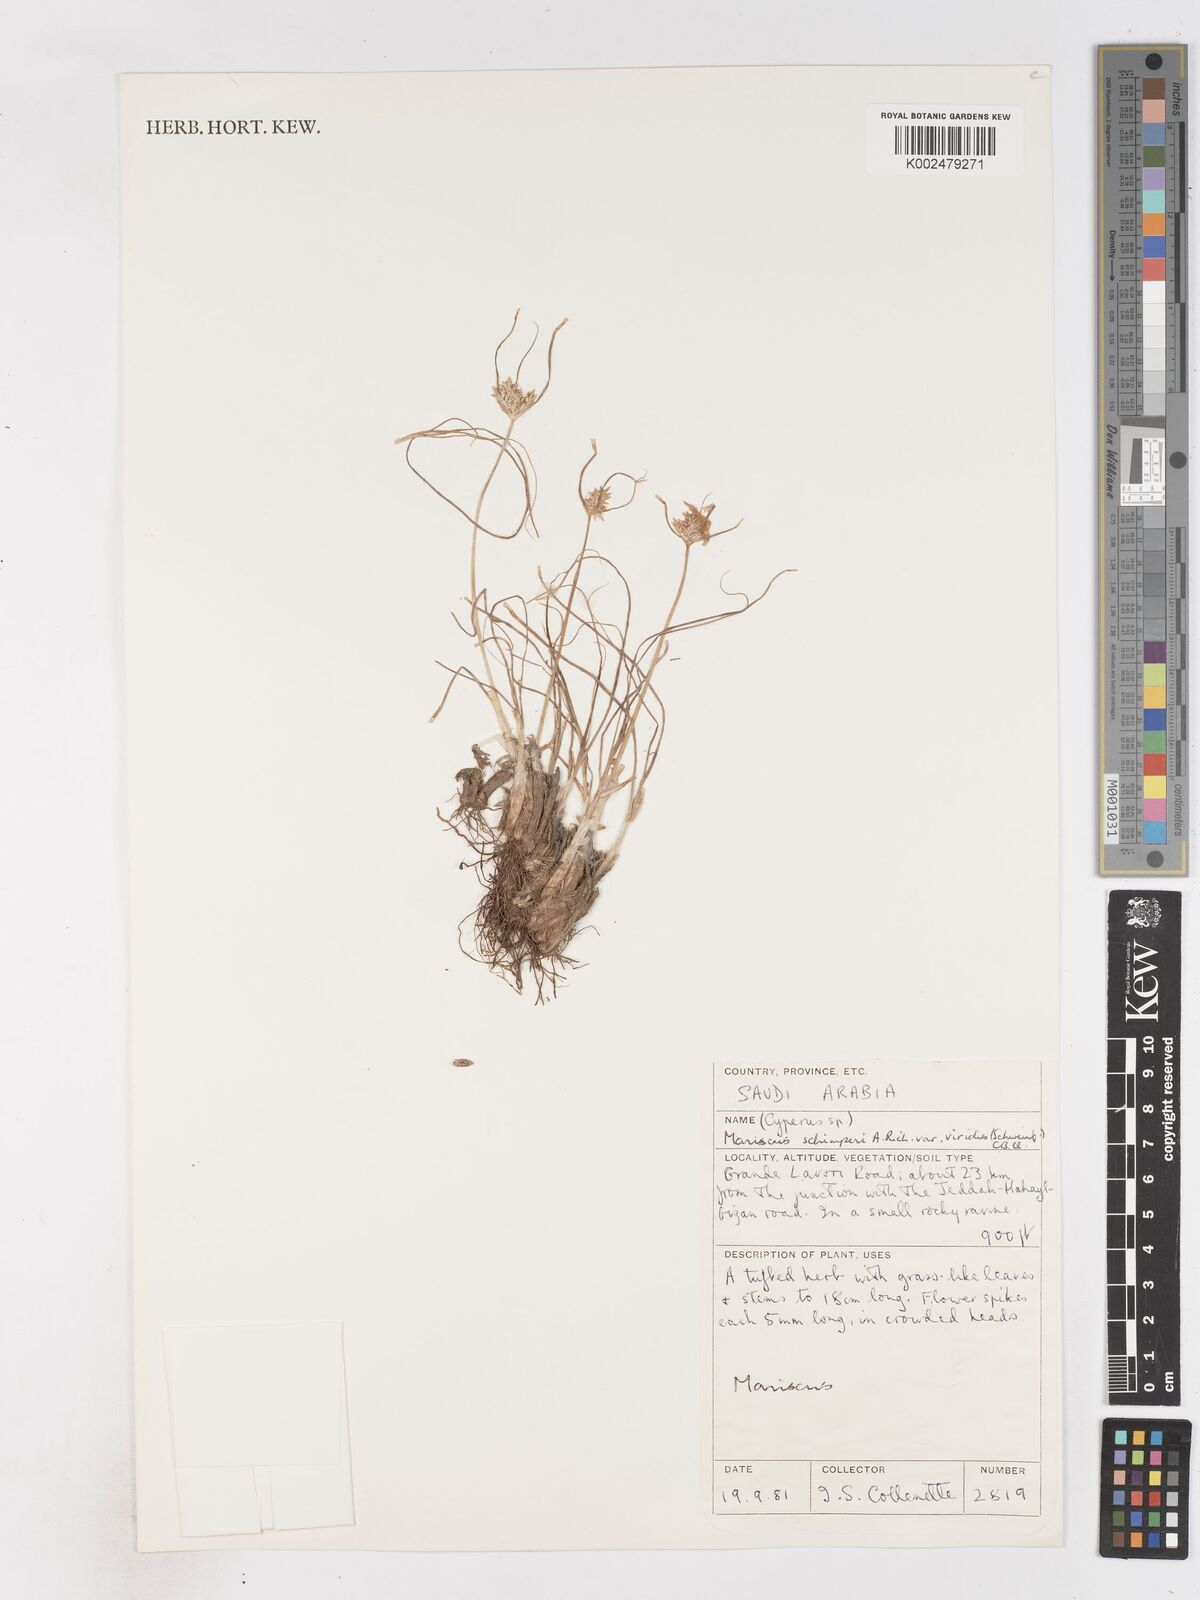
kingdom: Plantae
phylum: Tracheophyta
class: Liliopsida
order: Poales
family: Cyperaceae
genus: Cyperus
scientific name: Cyperus cruentus
